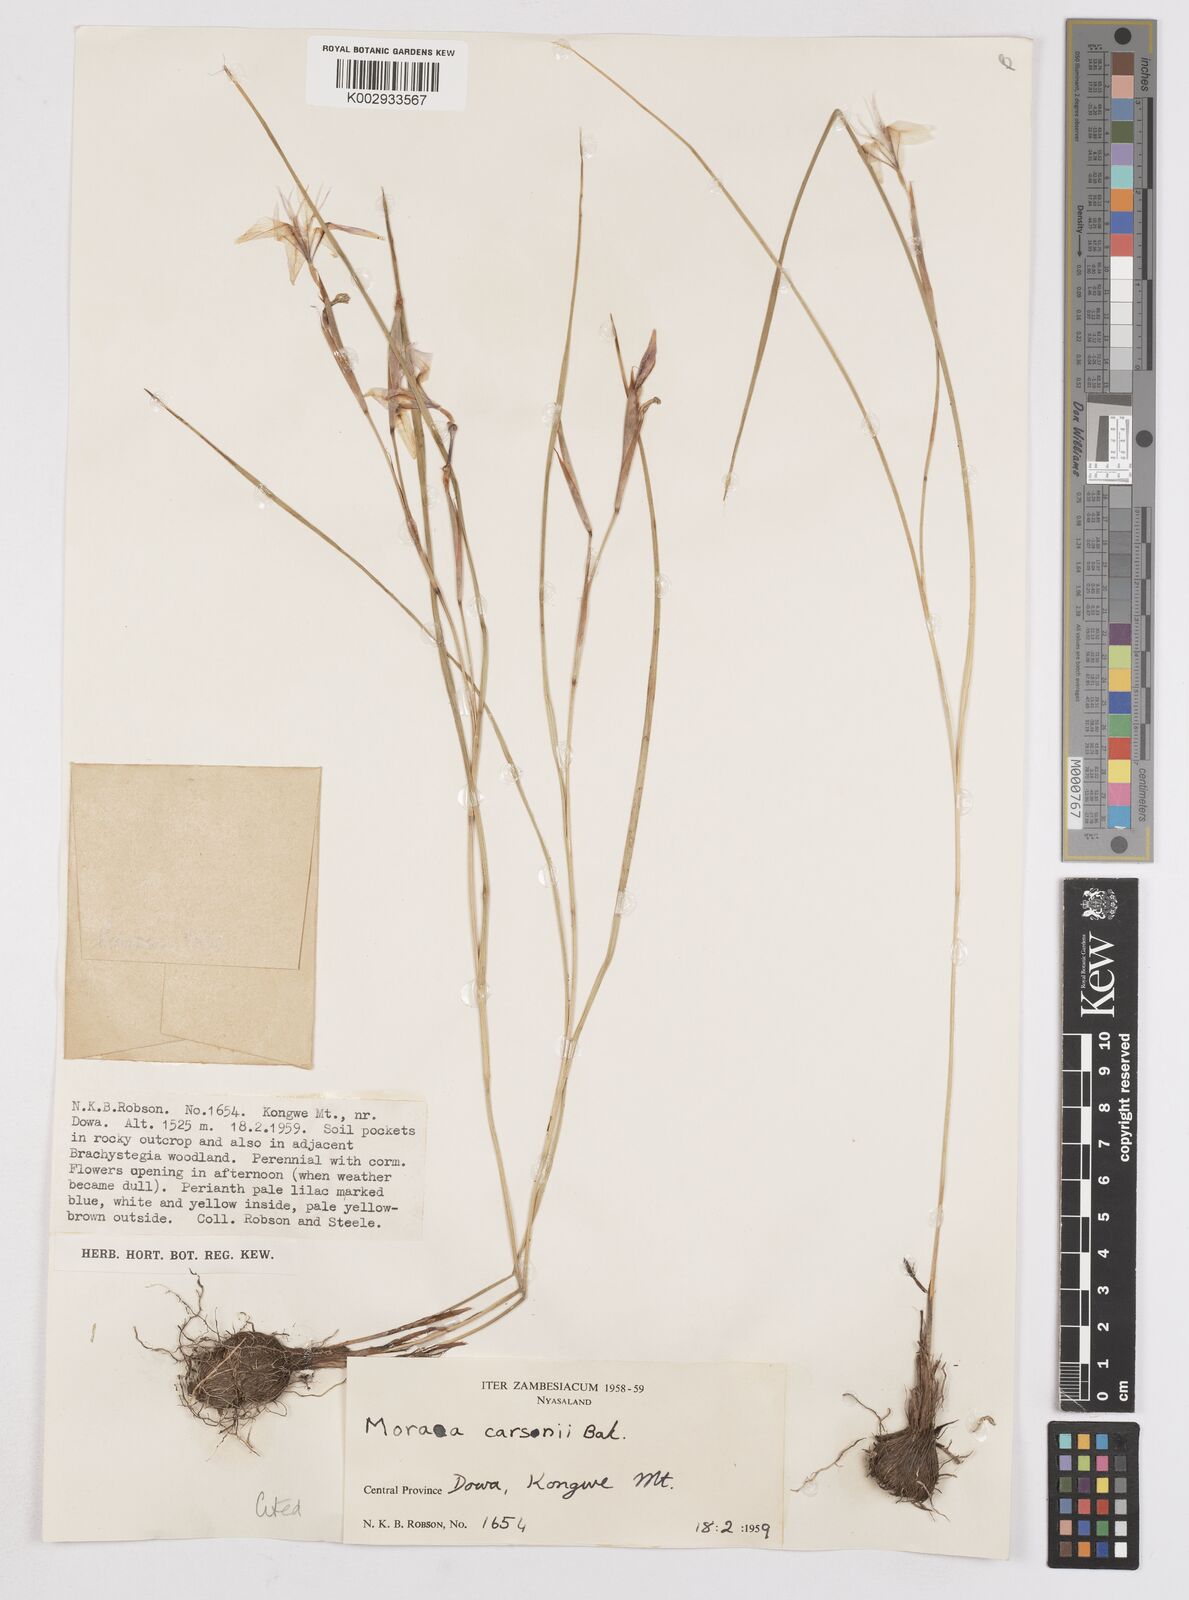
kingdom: Plantae
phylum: Tracheophyta
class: Liliopsida
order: Asparagales
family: Iridaceae
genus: Moraea
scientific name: Moraea carsonii
